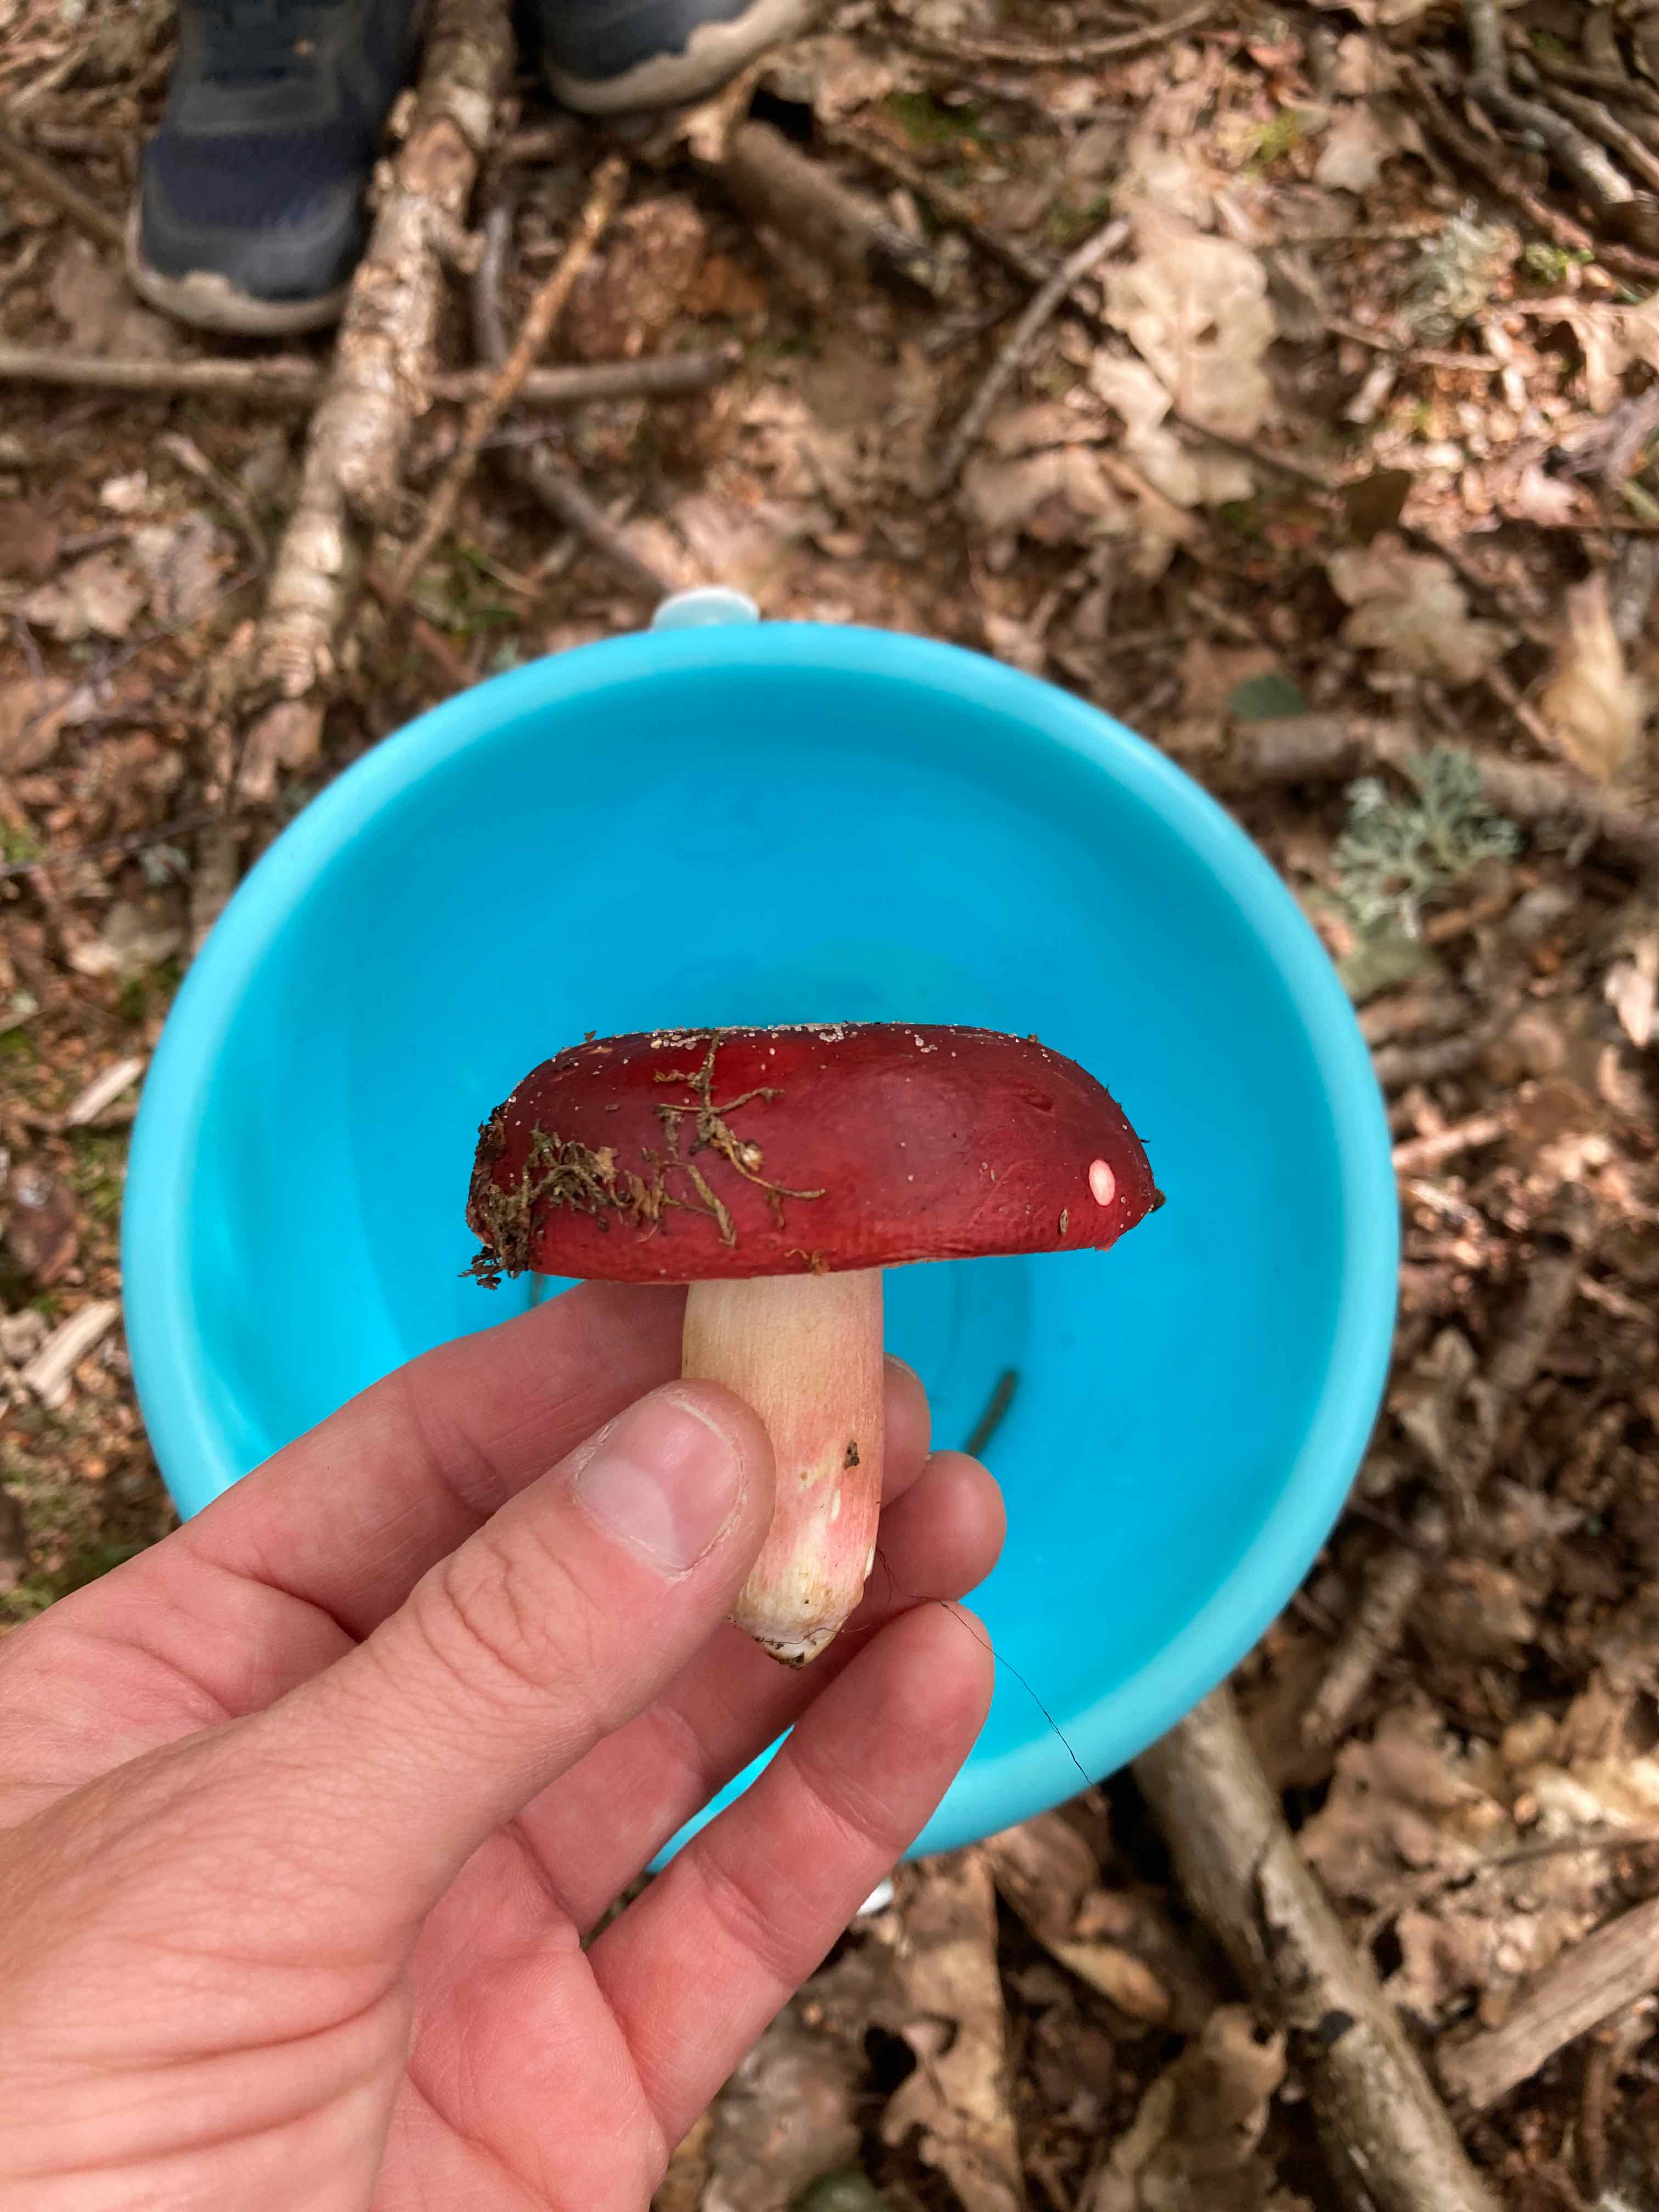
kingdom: Fungi
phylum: Basidiomycota
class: Agaricomycetes
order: Russulales
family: Russulaceae
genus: Russula
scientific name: Russula xerampelina
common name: hummer-skørhat
